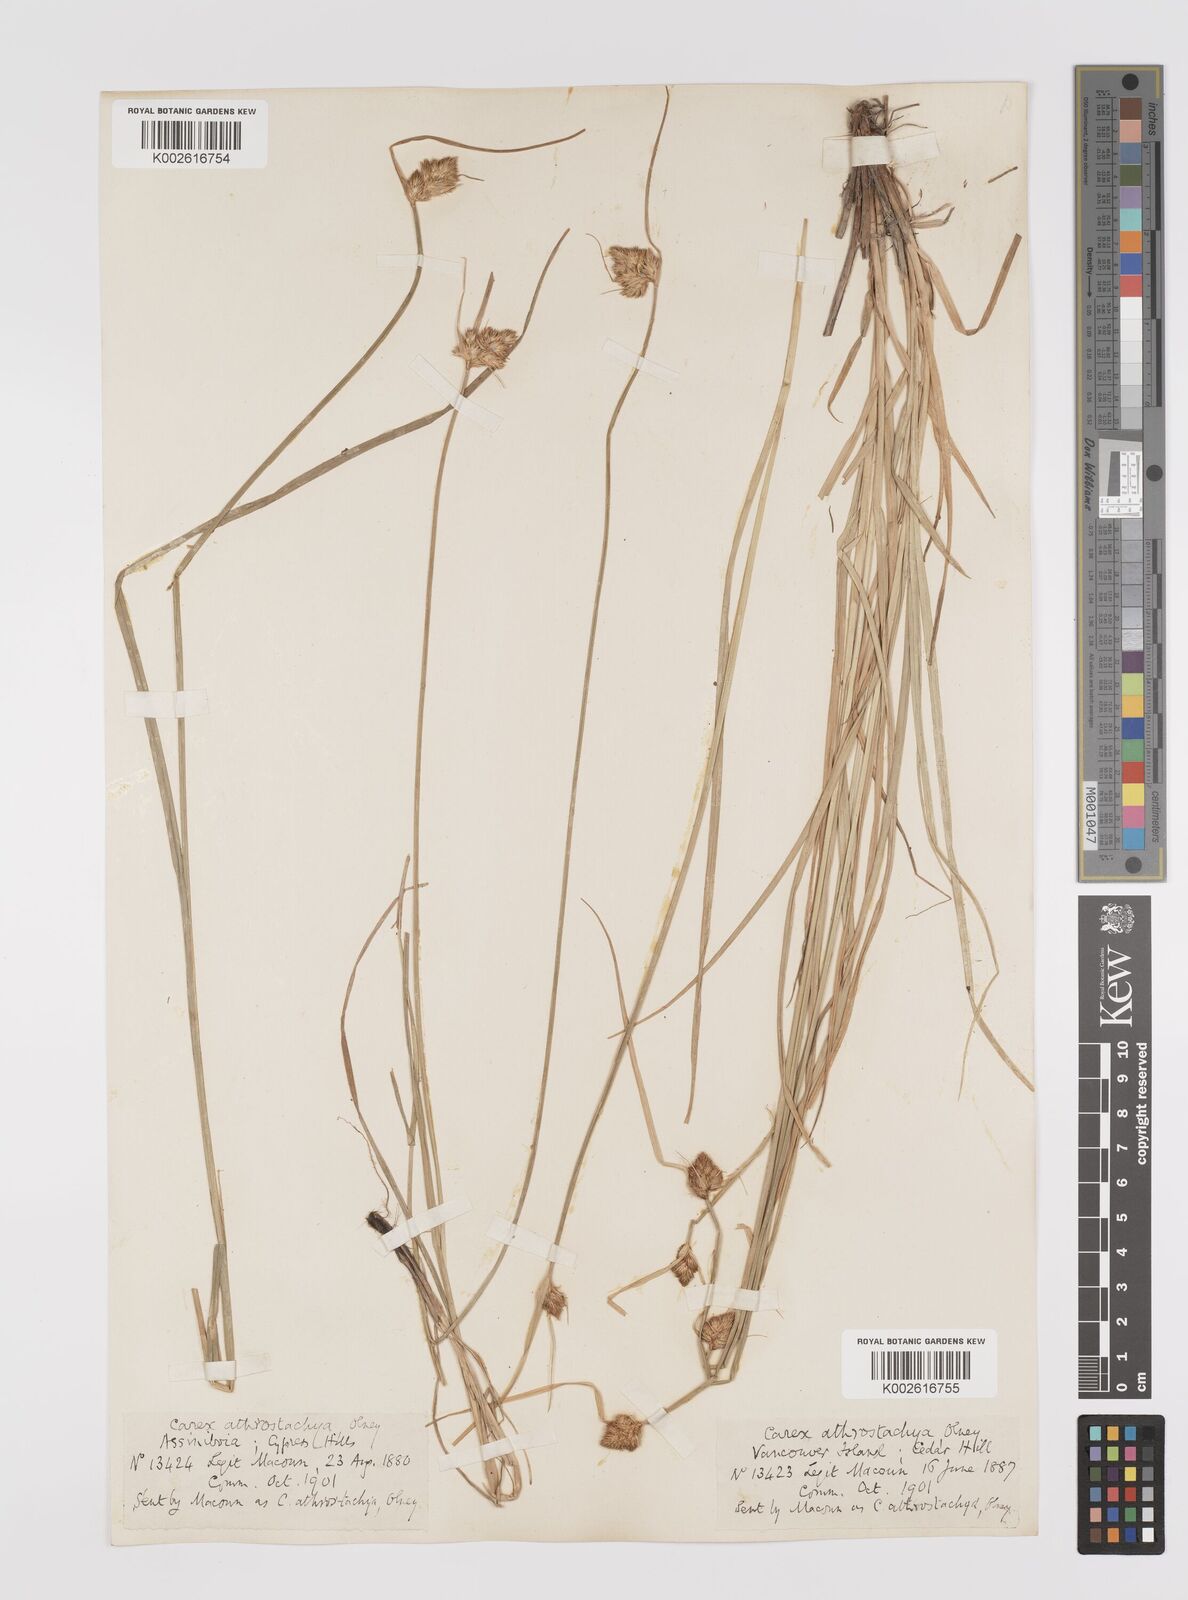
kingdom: Plantae
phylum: Tracheophyta
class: Liliopsida
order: Poales
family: Cyperaceae
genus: Carex
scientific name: Carex athrostachya
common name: Slenderbeak sedge
